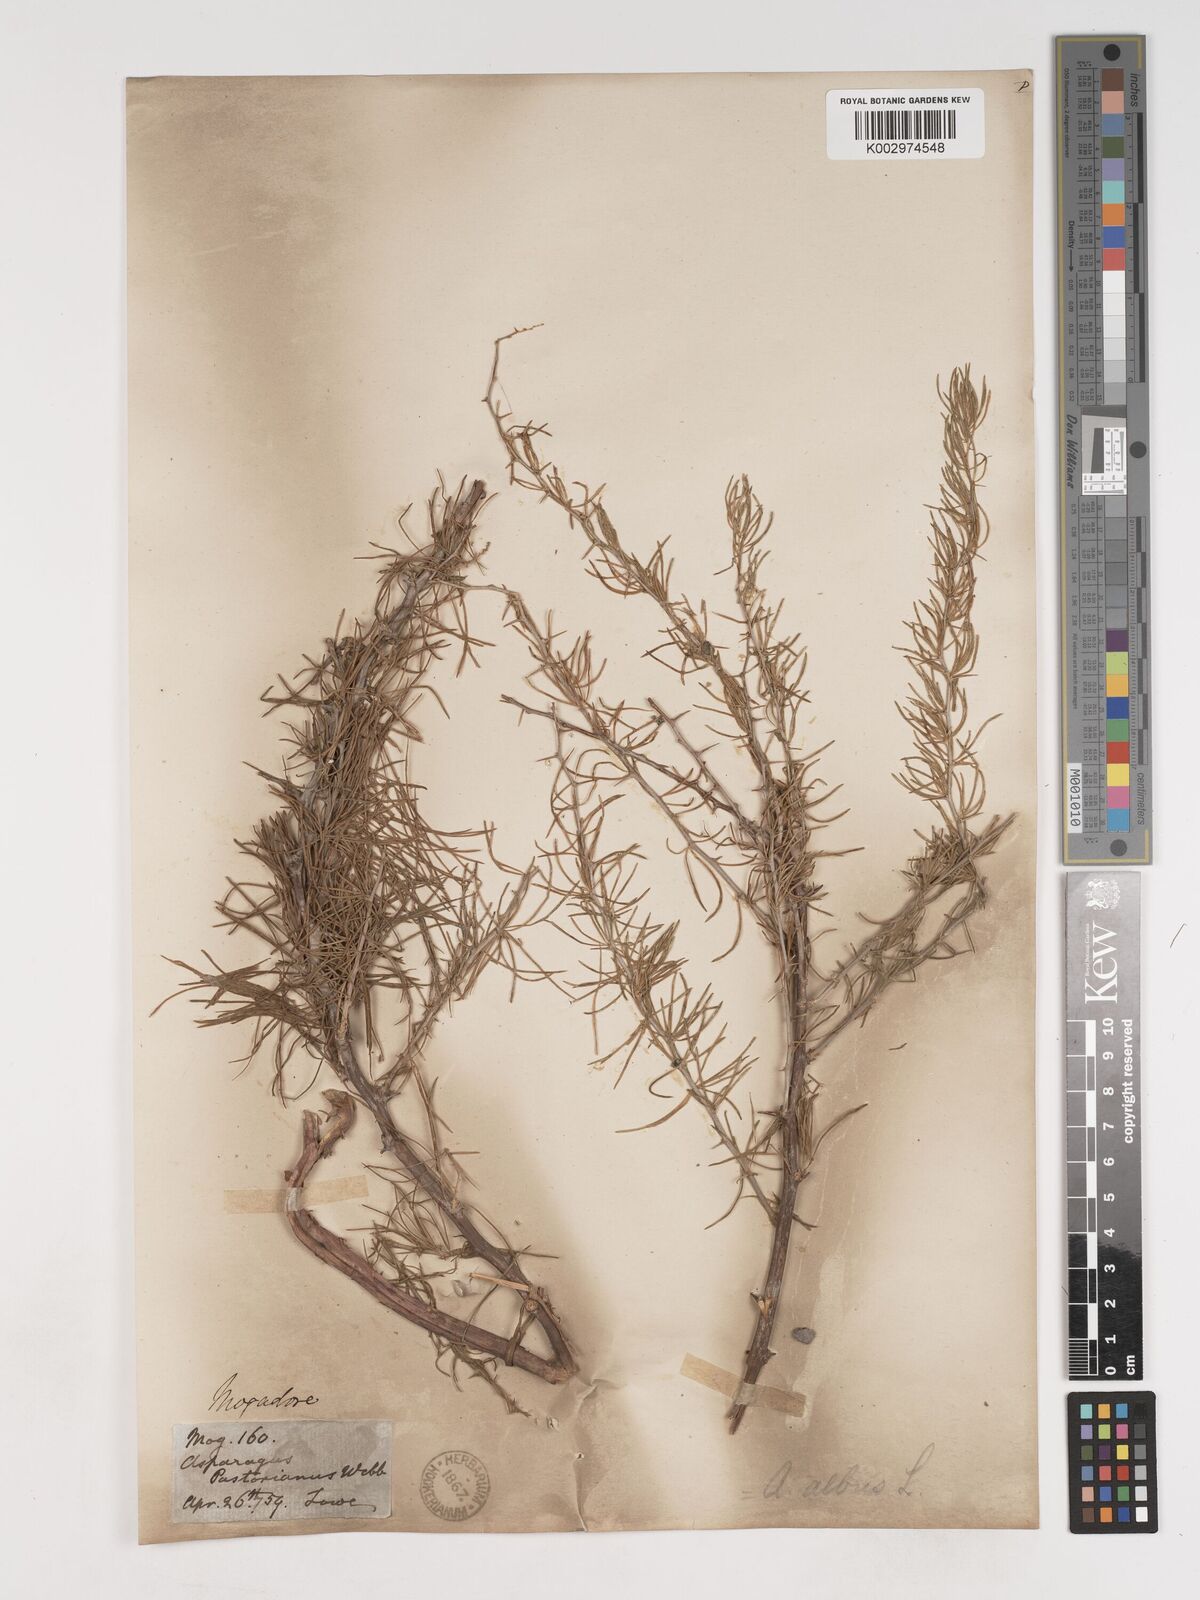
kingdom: Plantae
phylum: Tracheophyta
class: Liliopsida
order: Asparagales
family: Asparagaceae
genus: Asparagus
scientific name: Asparagus albus
